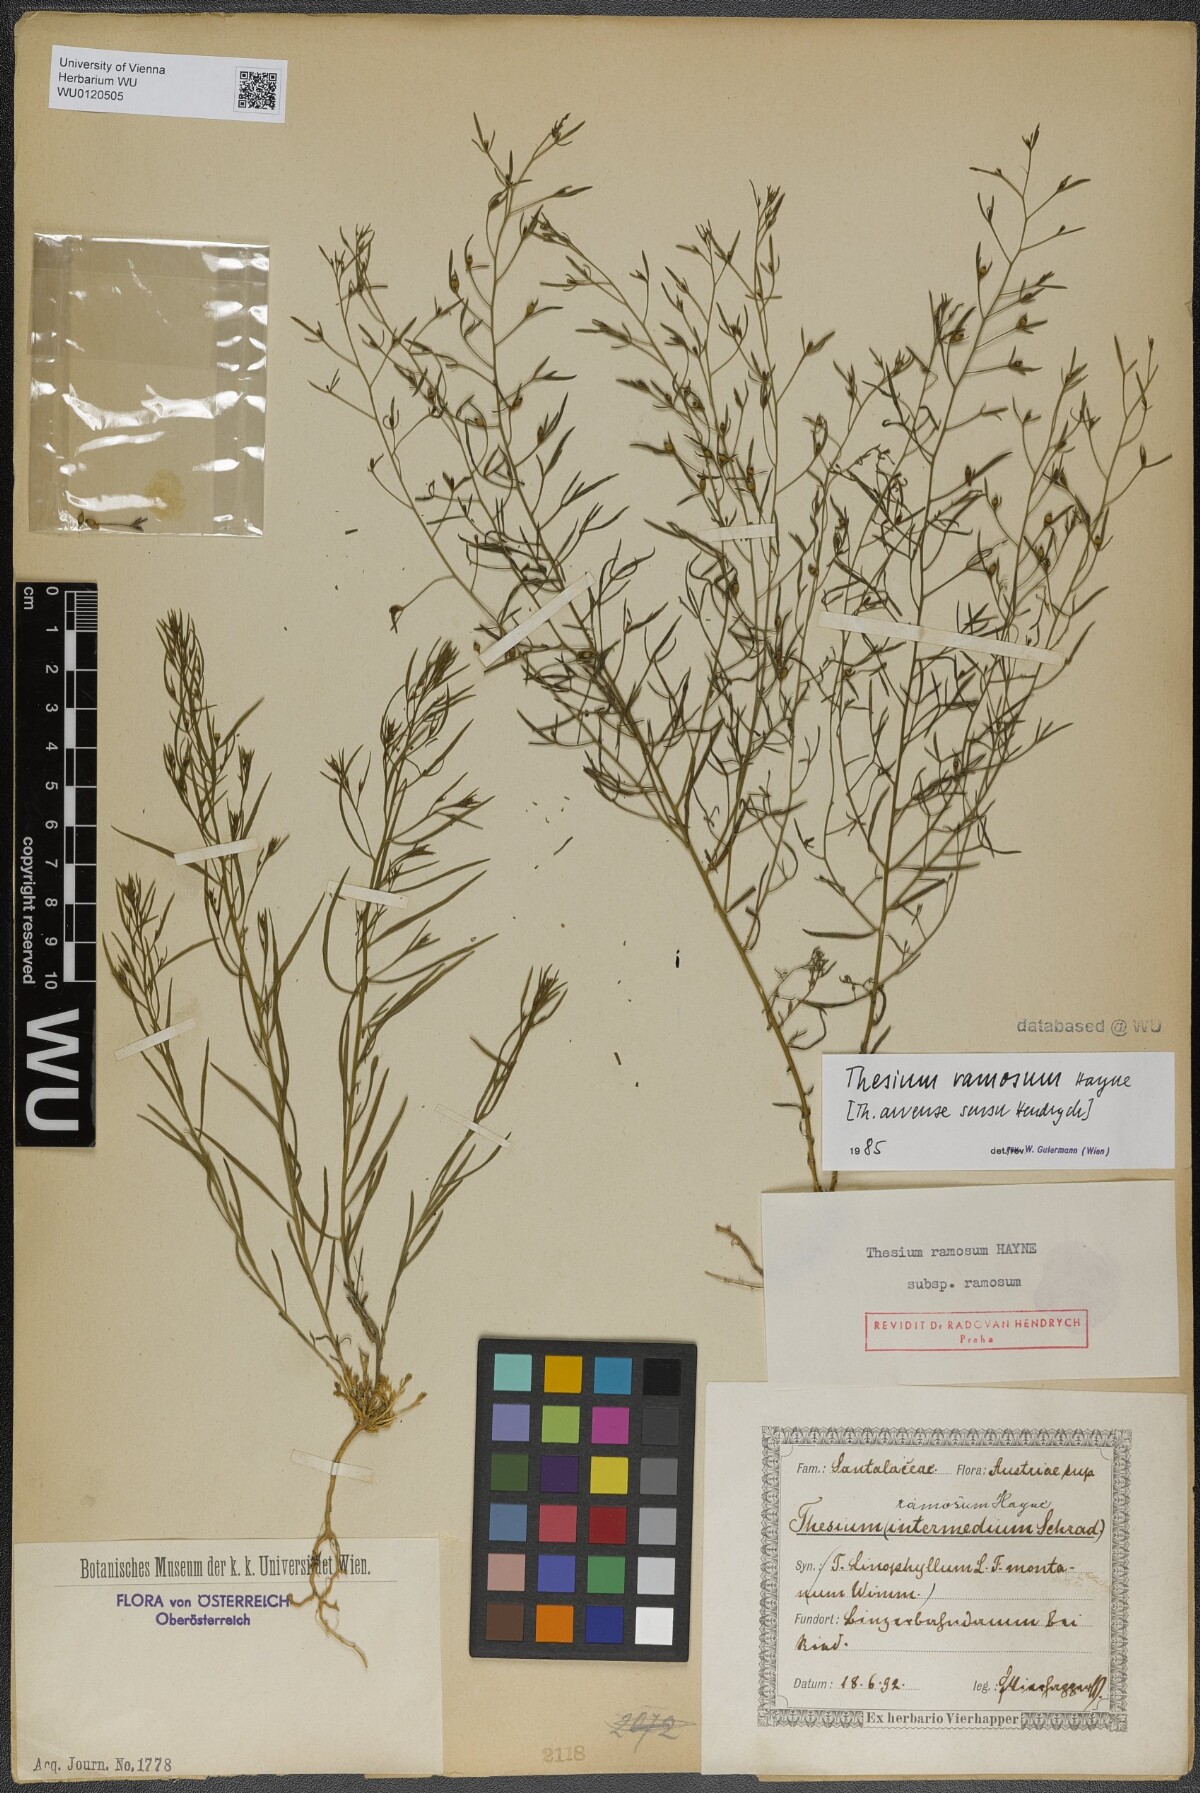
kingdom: Plantae
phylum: Tracheophyta
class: Magnoliopsida
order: Santalales
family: Thesiaceae
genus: Thesium
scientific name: Thesium ramosum
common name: Field thesium
